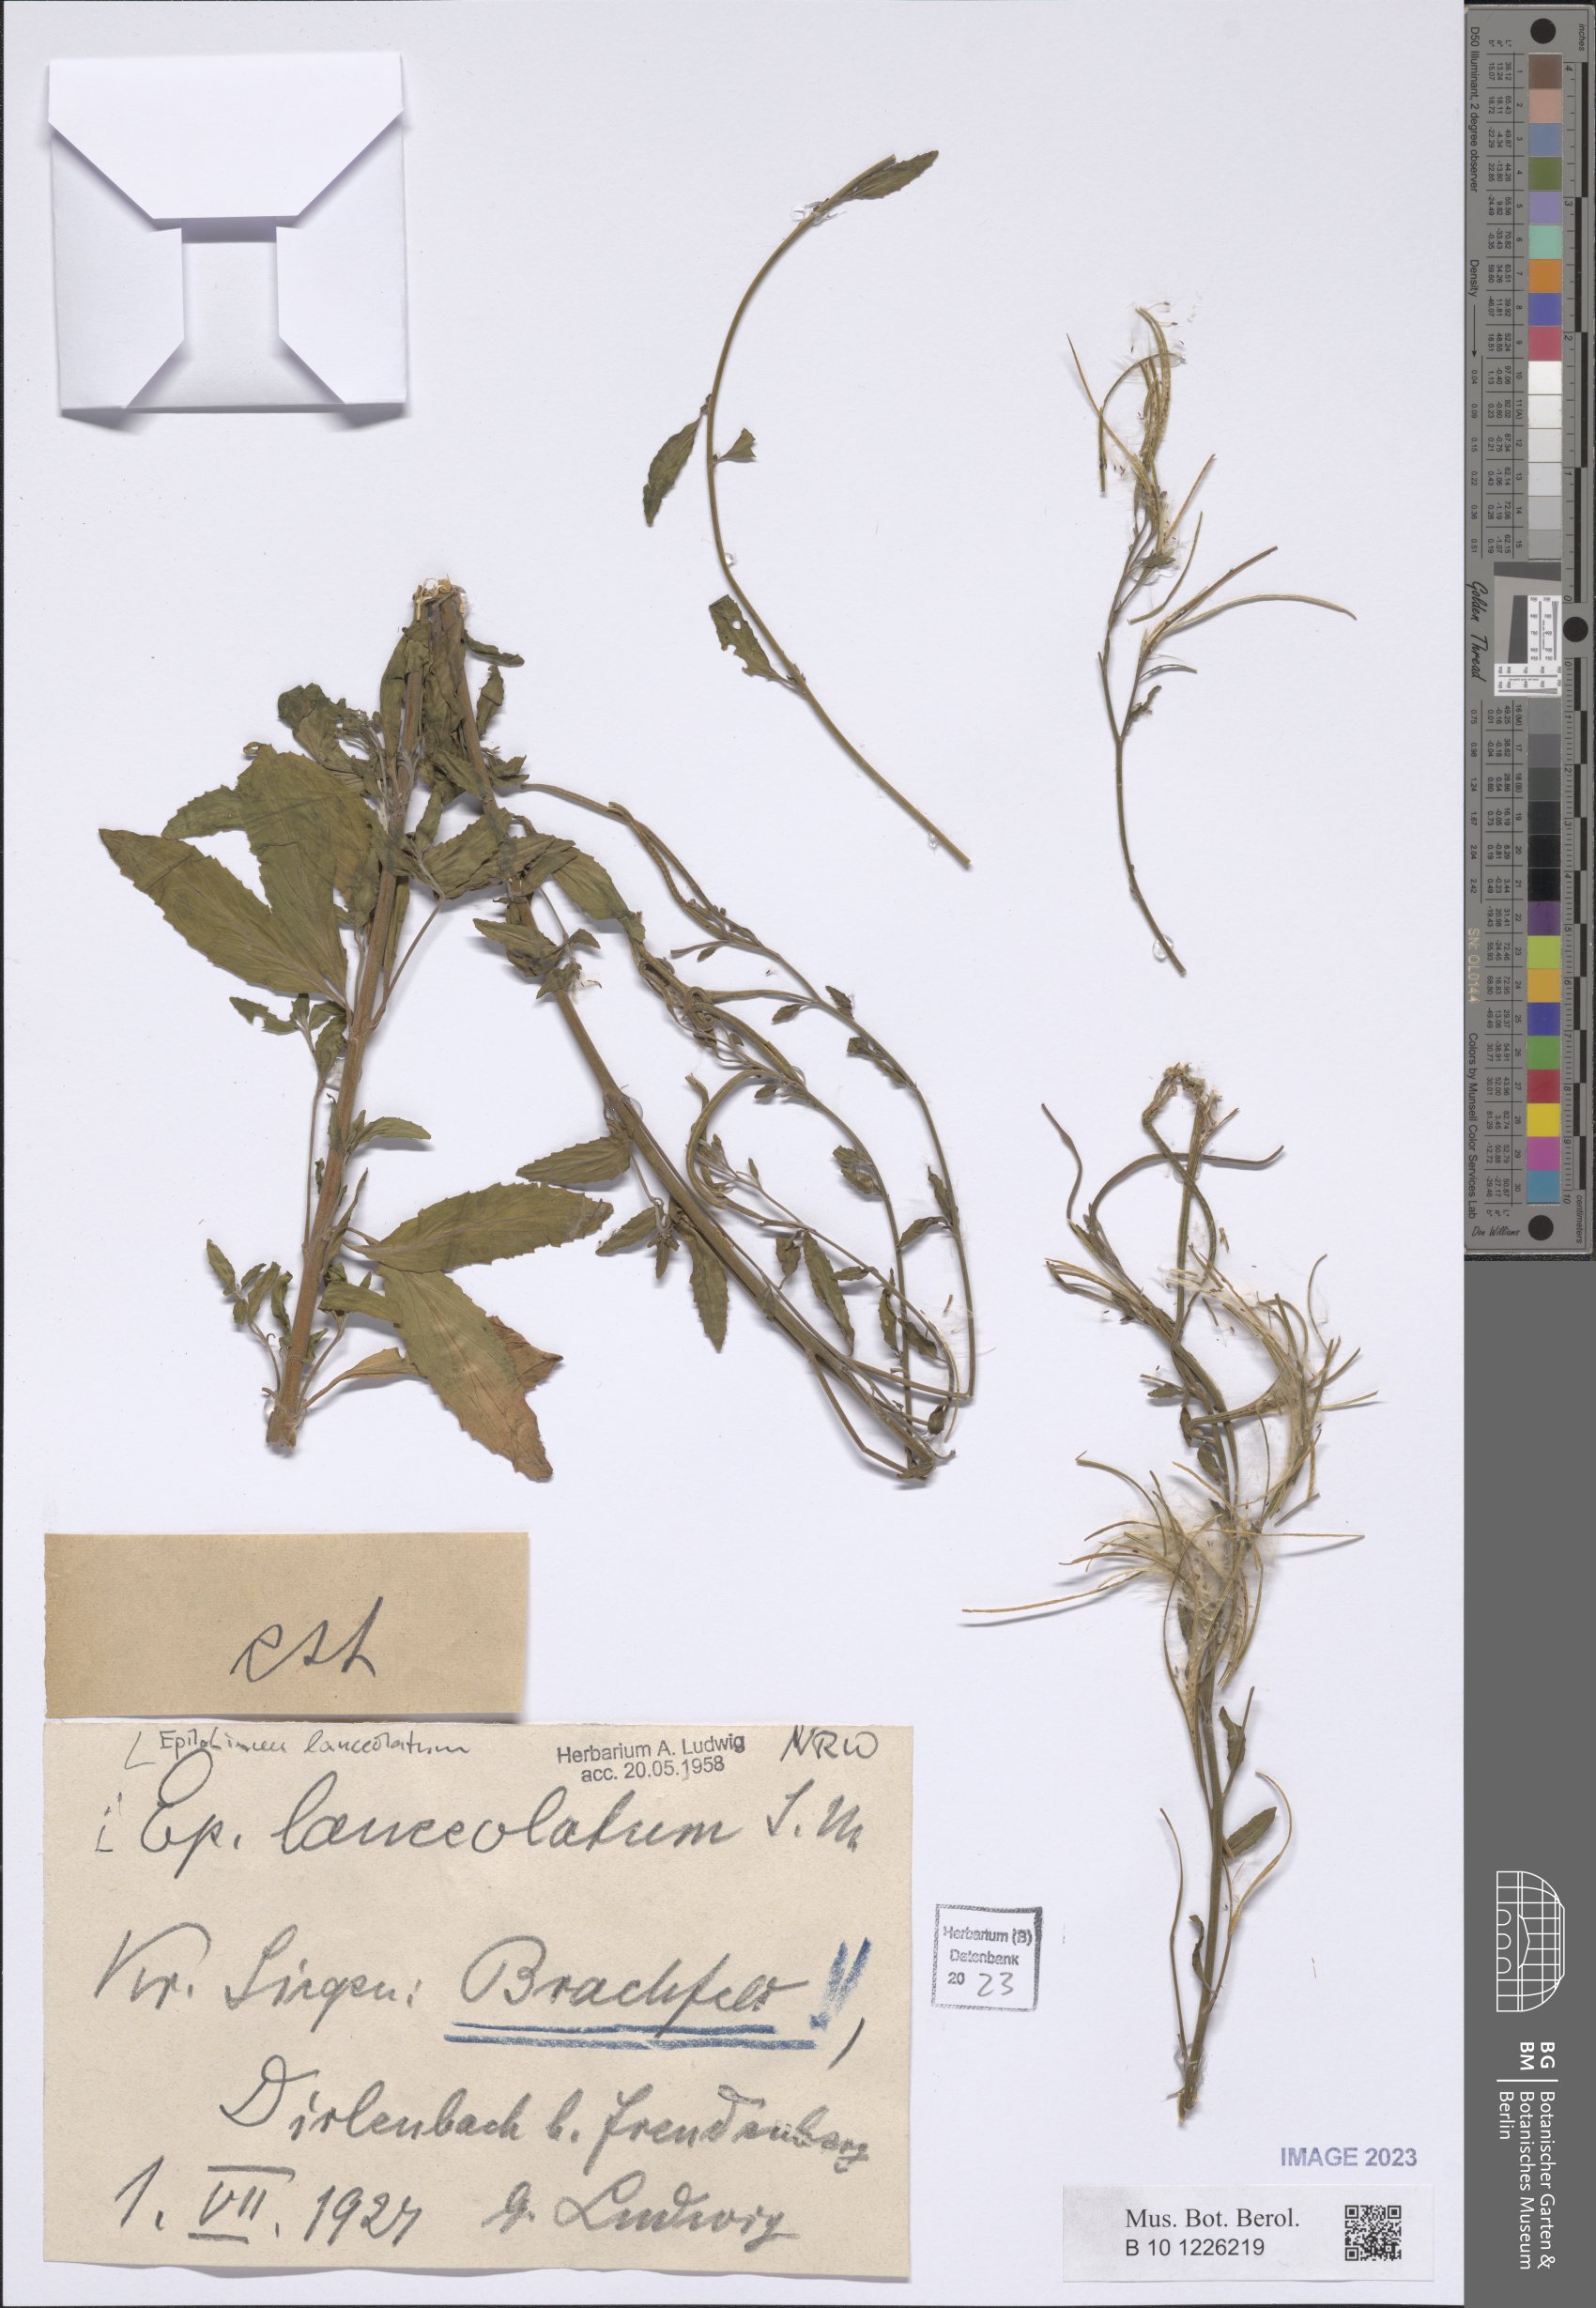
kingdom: Plantae
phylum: Tracheophyta
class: Magnoliopsida
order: Myrtales
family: Onagraceae
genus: Epilobium
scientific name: Epilobium lanceolatum
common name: Spear-leaved willowherb
